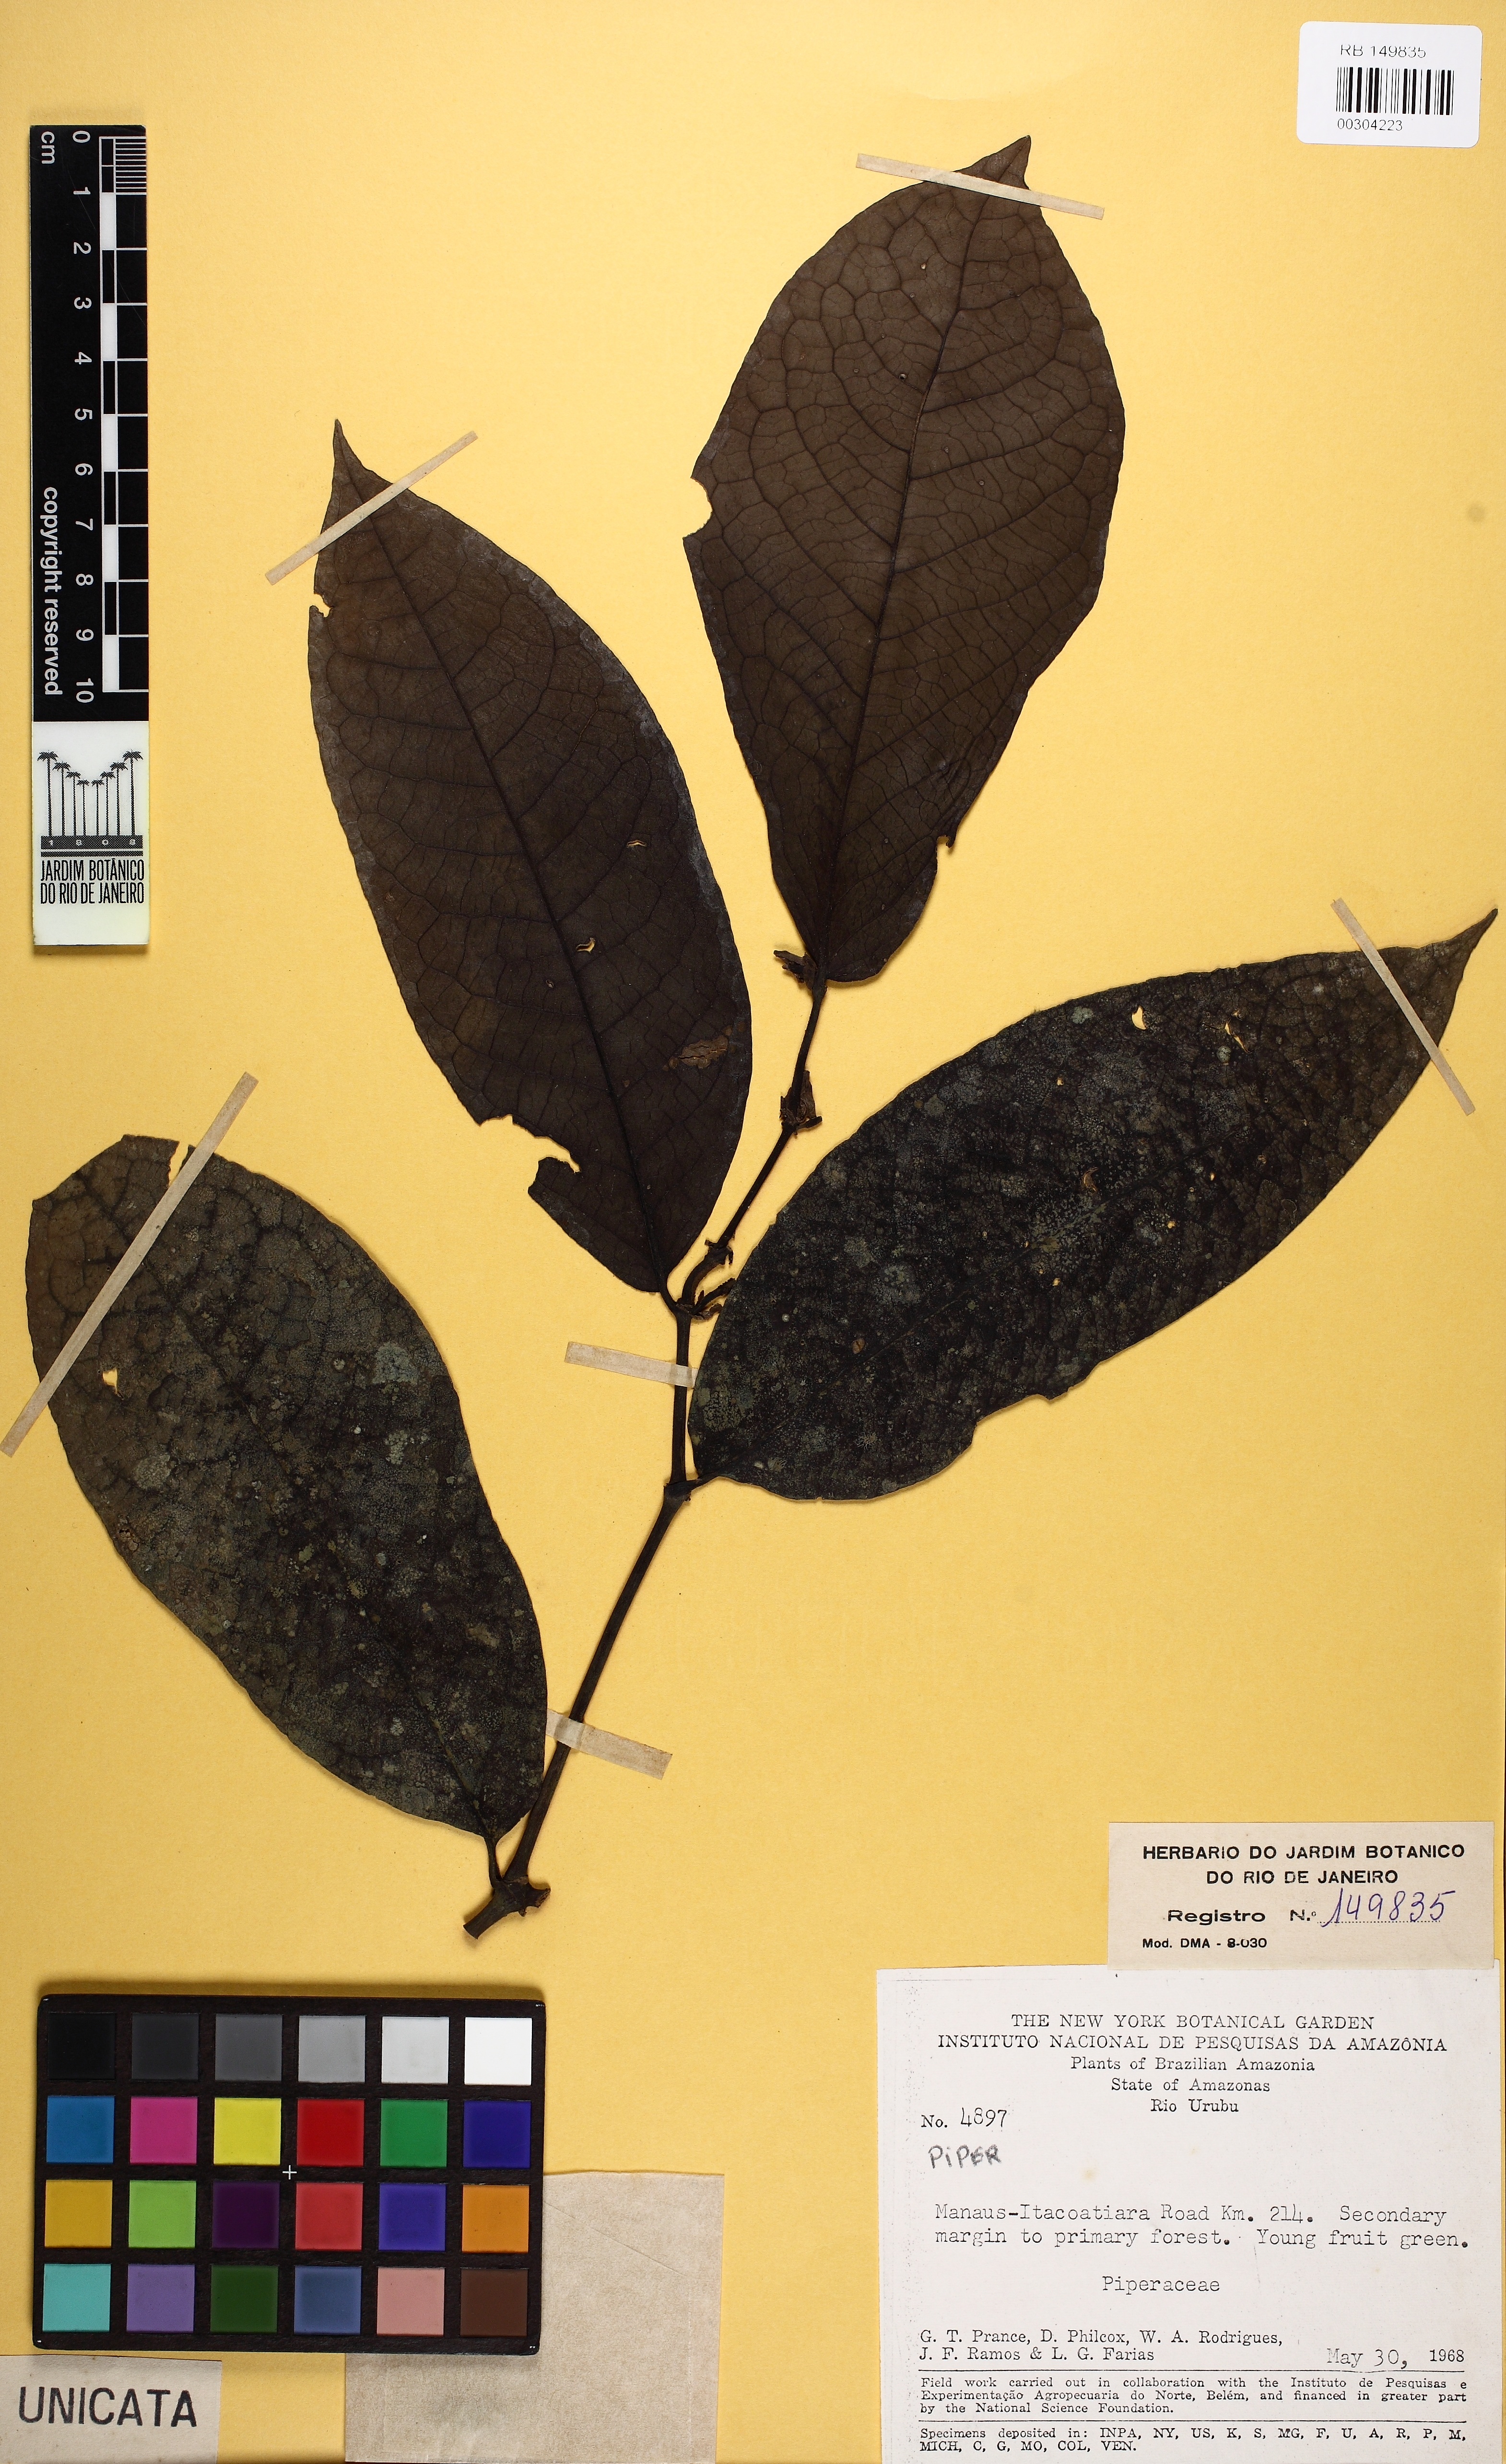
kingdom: Plantae
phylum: Tracheophyta
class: Magnoliopsida
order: Piperales
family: Piperaceae
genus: Piper
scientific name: Piper
